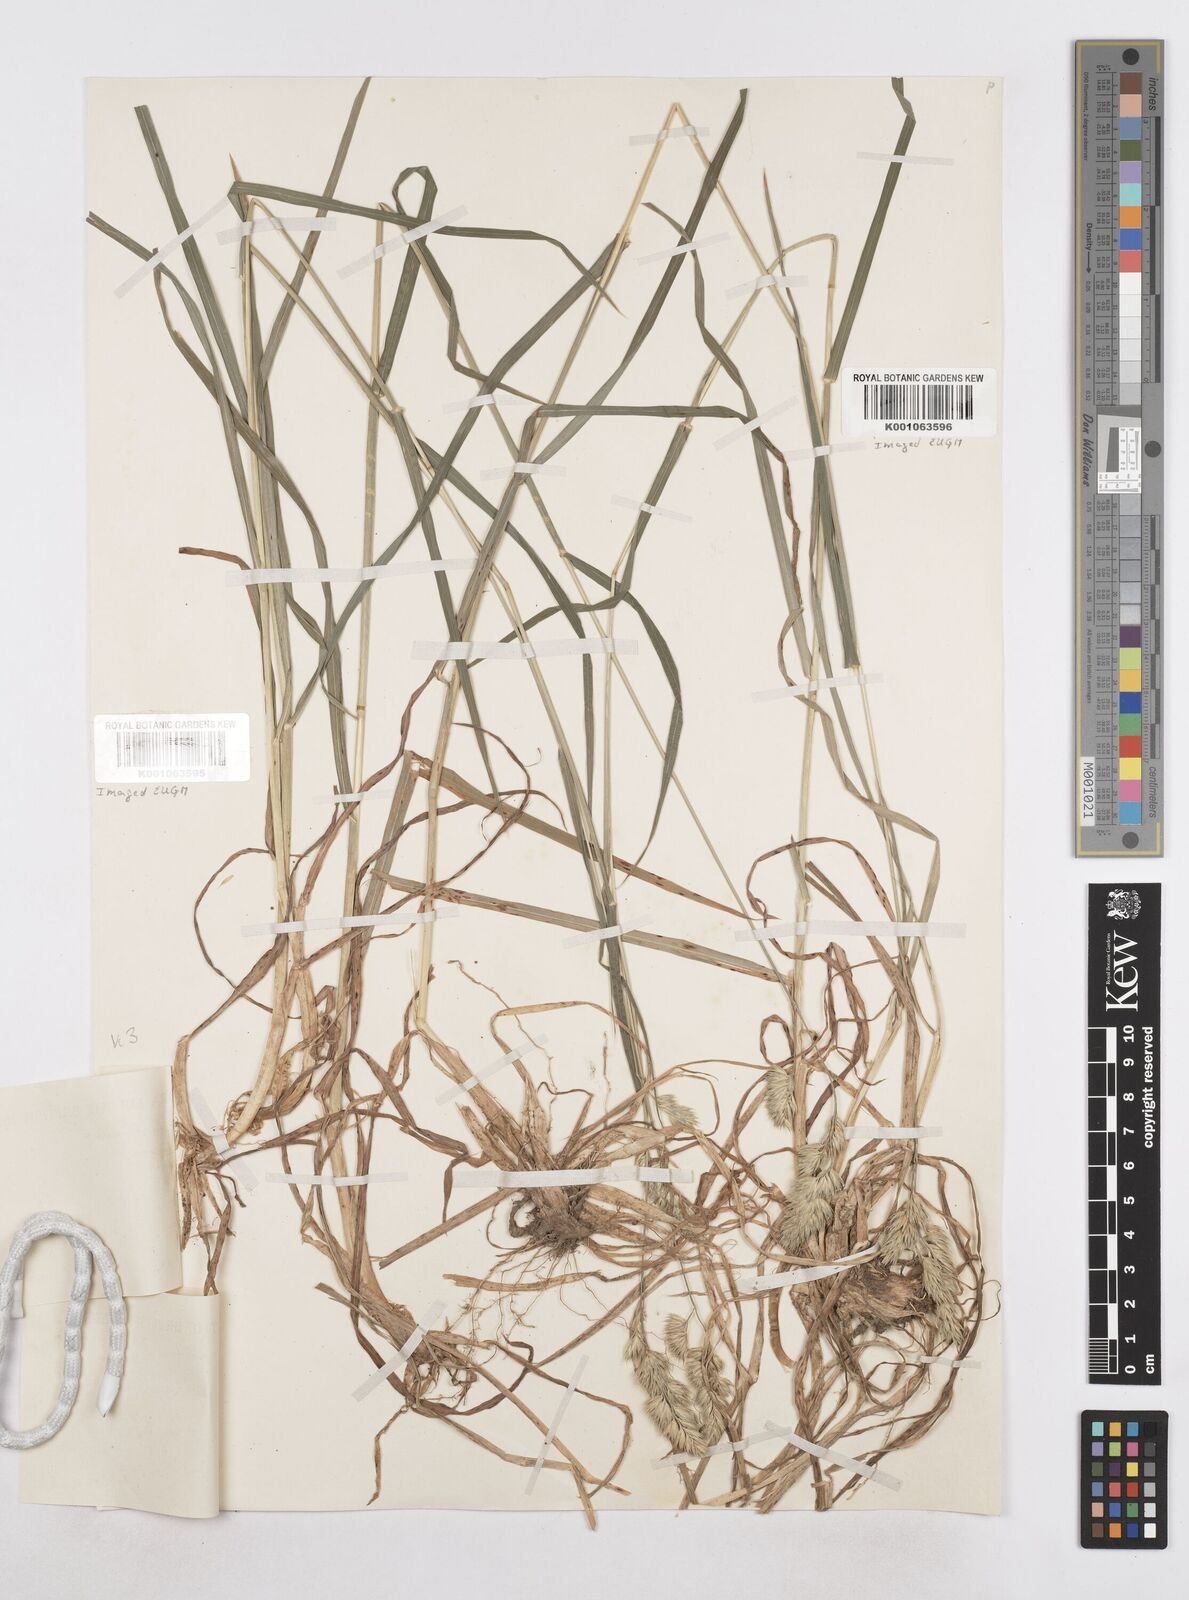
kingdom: Plantae
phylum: Tracheophyta
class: Liliopsida
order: Poales
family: Poaceae
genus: Dactylis
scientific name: Dactylis glomerata
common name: Orchardgrass
